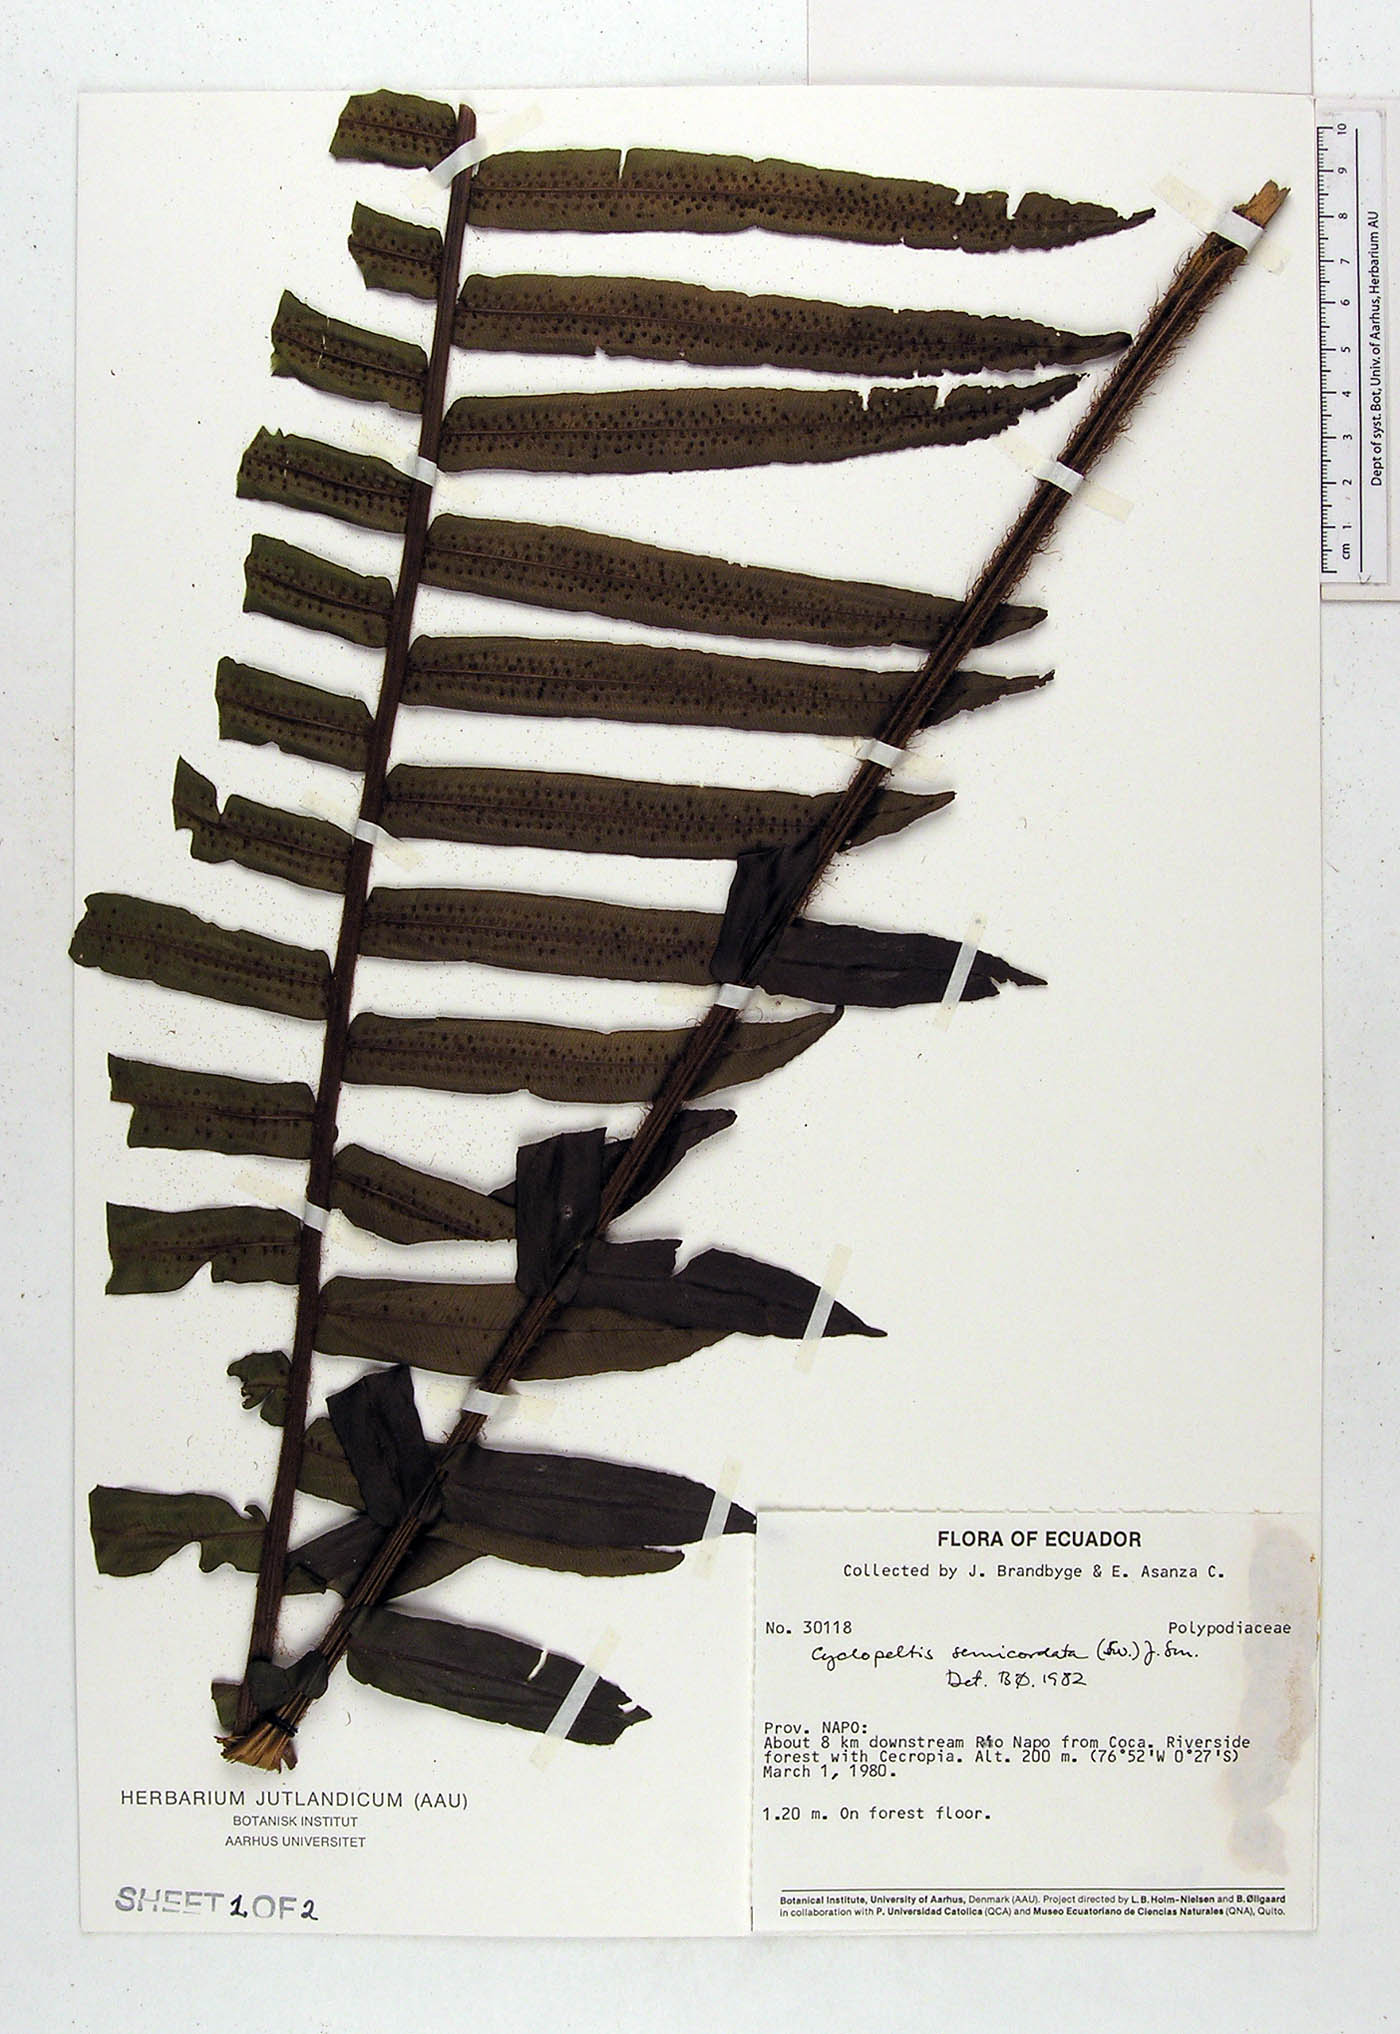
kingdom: Plantae
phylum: Tracheophyta
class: Polypodiopsida
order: Polypodiales
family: Lomariopsidaceae
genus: Cyclopeltis
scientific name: Cyclopeltis semicordata
